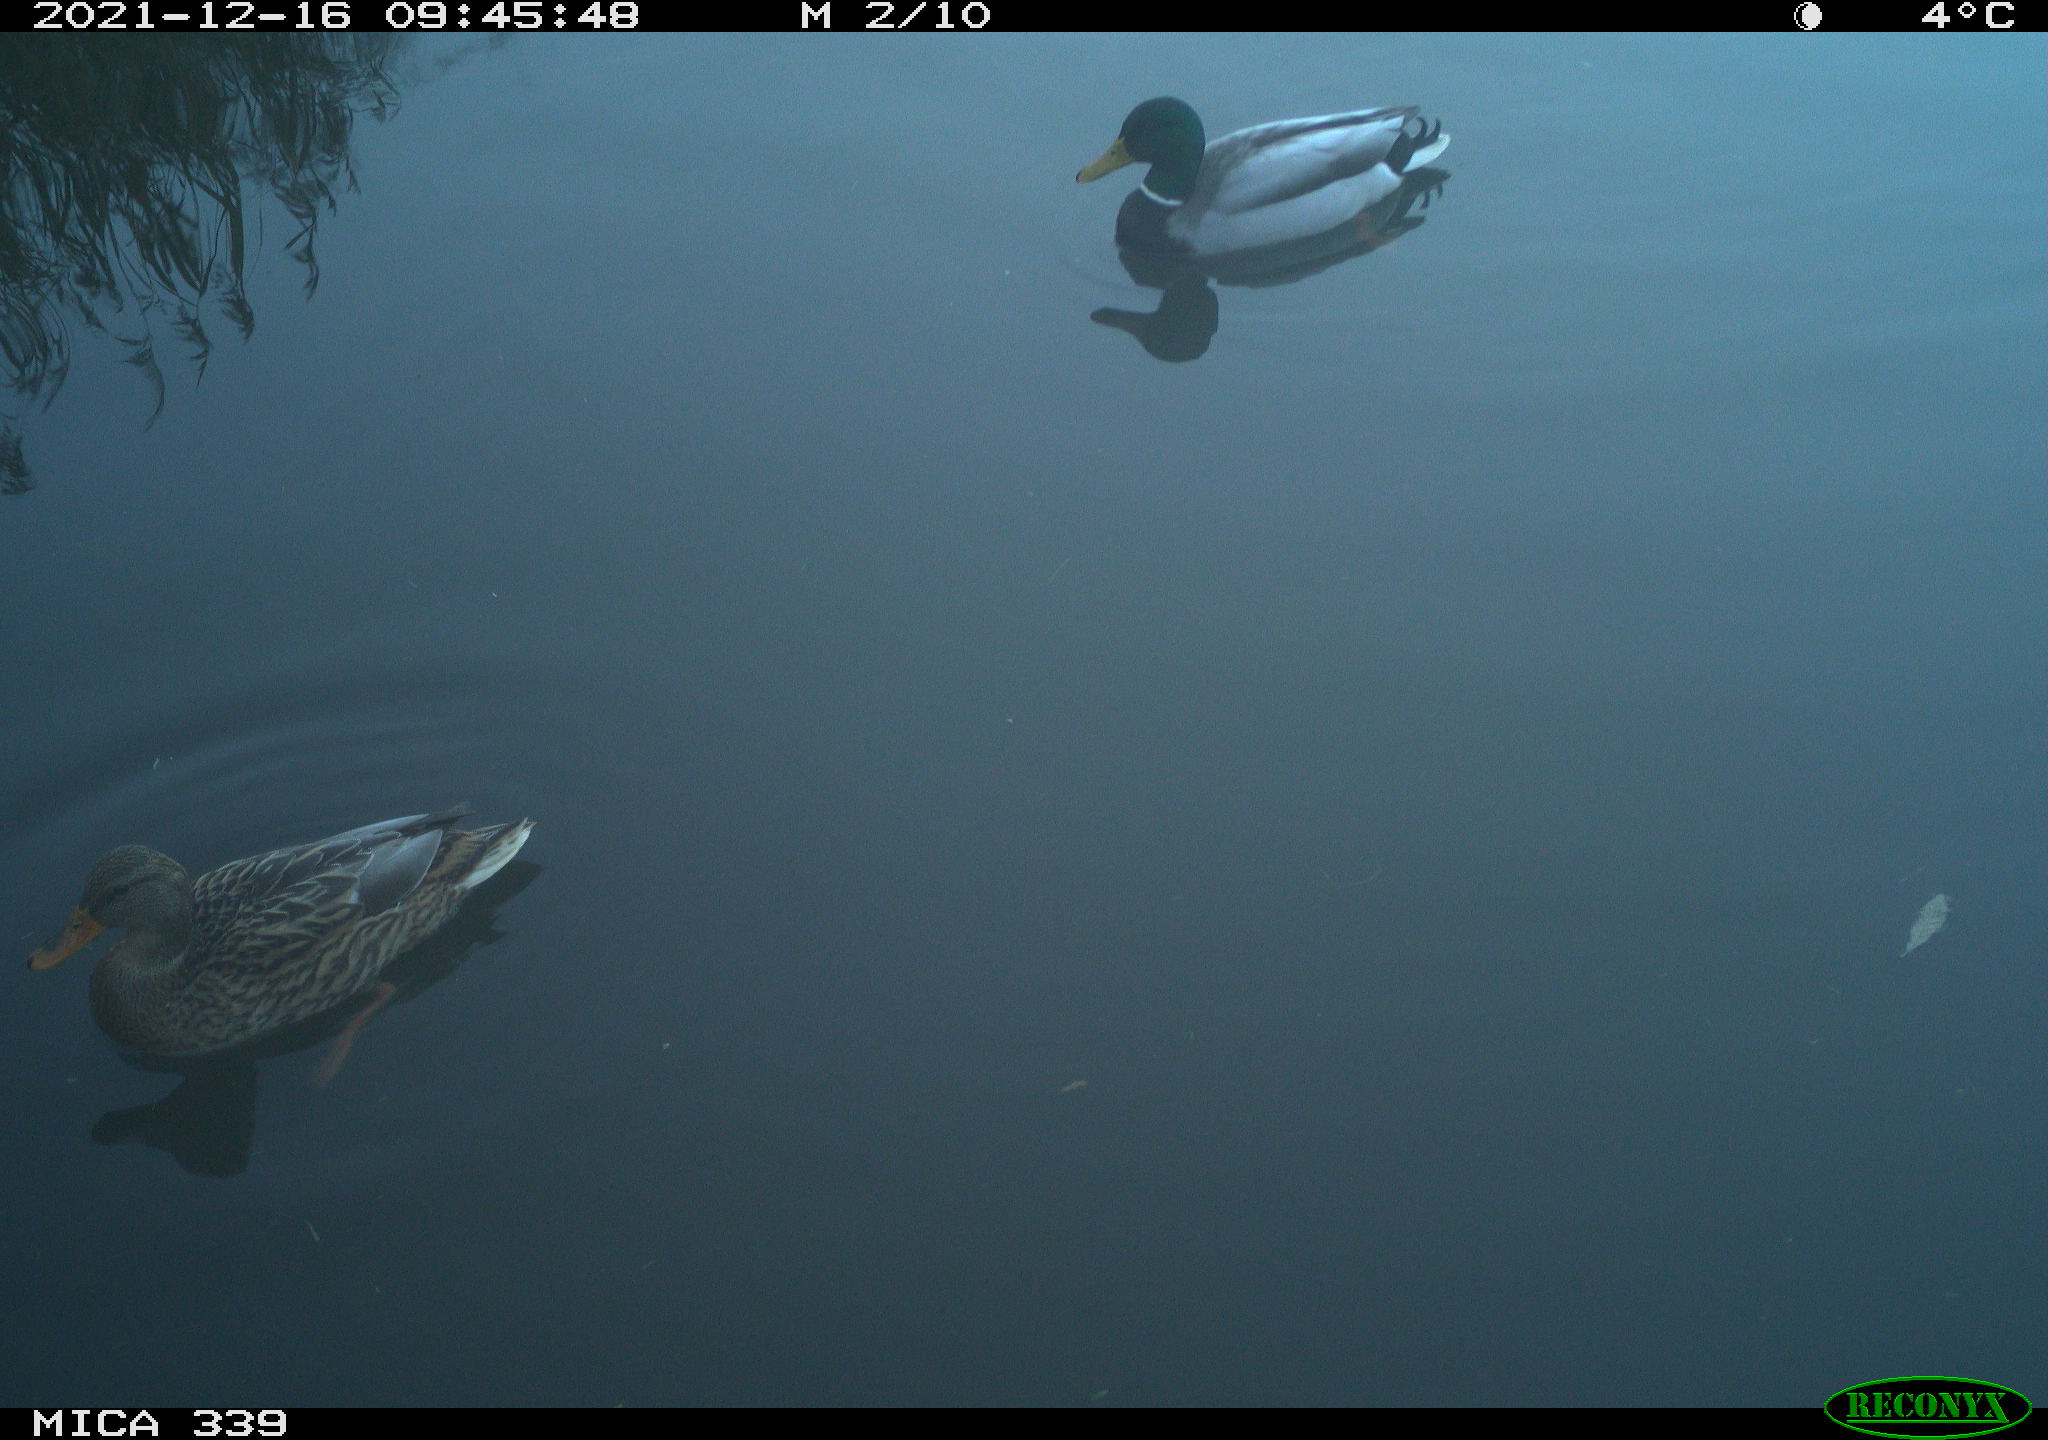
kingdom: Animalia
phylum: Chordata
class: Aves
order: Anseriformes
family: Anatidae
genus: Anas
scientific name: Anas platyrhynchos
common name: Mallard
